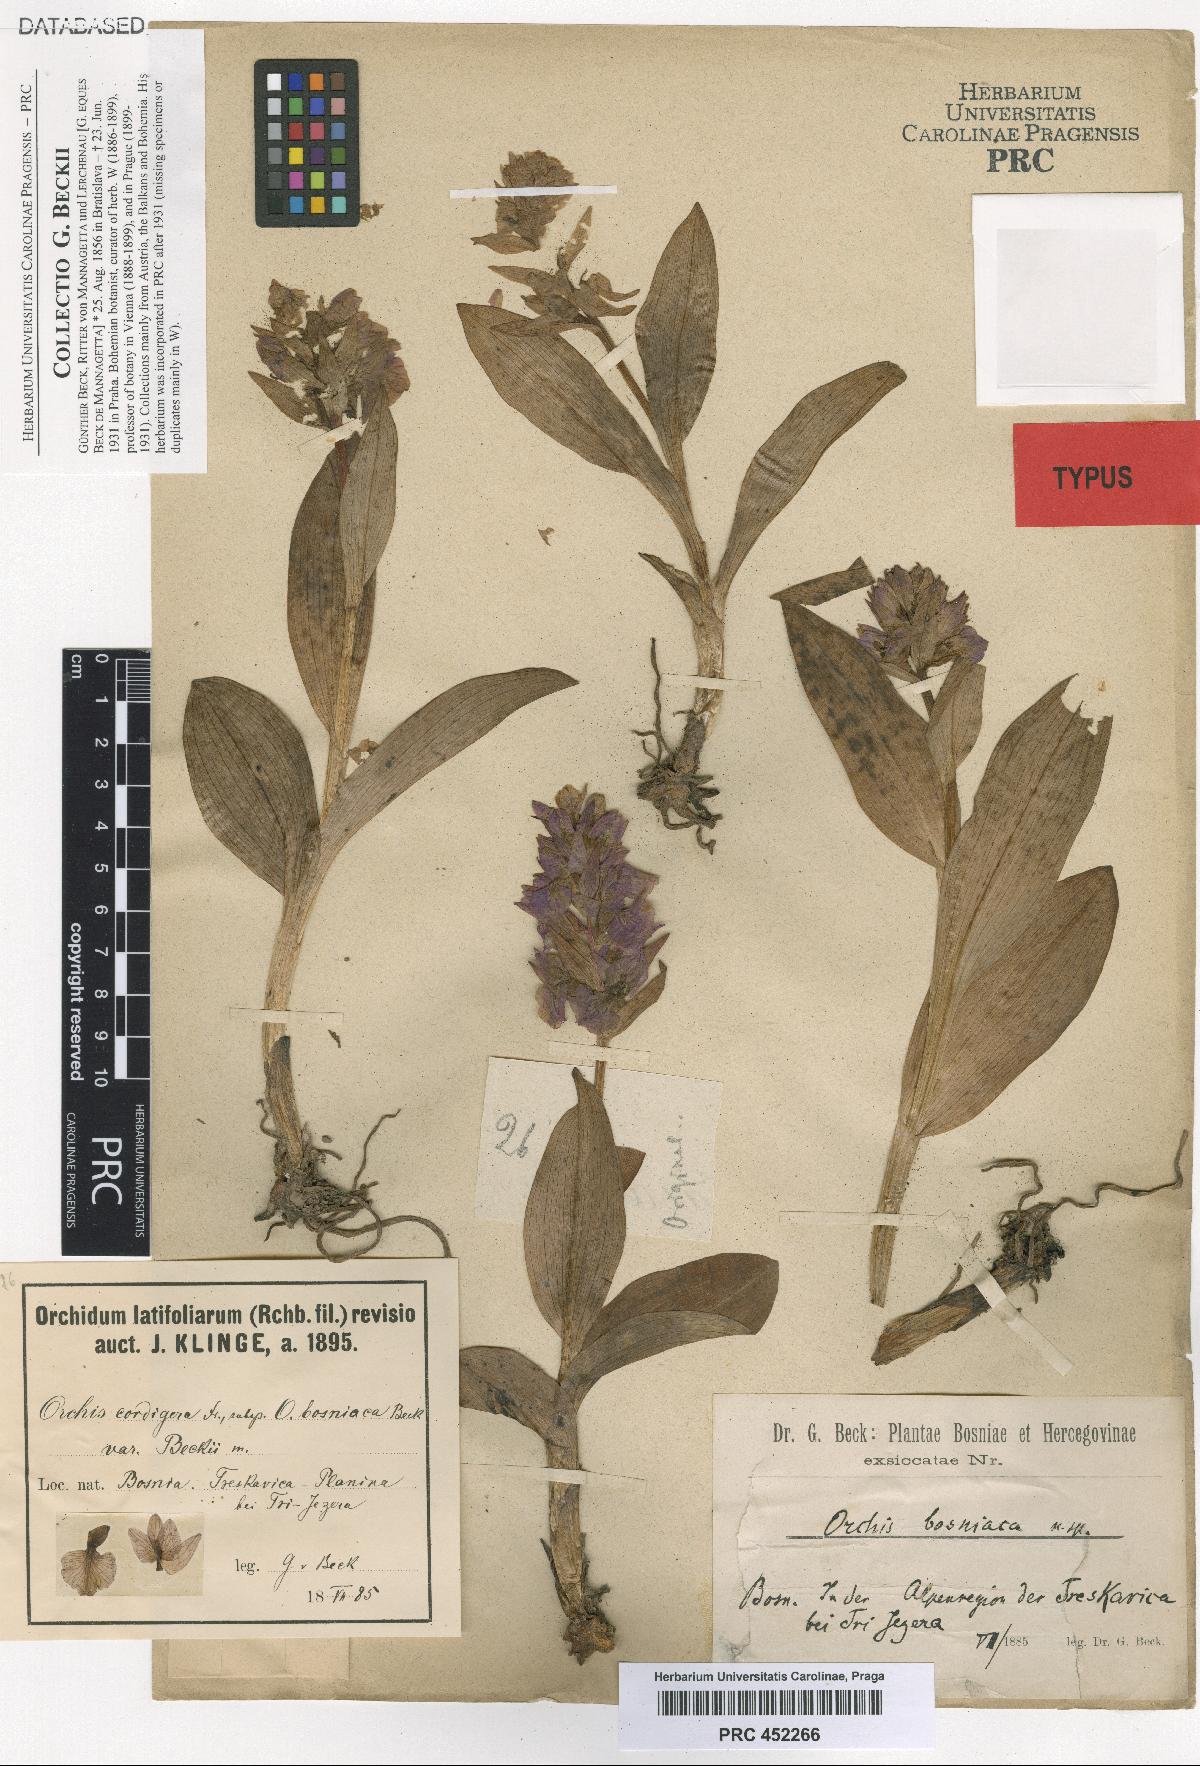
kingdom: Plantae
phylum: Tracheophyta
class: Liliopsida
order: Asparagales
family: Orchidaceae
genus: Dactylorhiza
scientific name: Dactylorhiza majalis
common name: Marsh orchid
